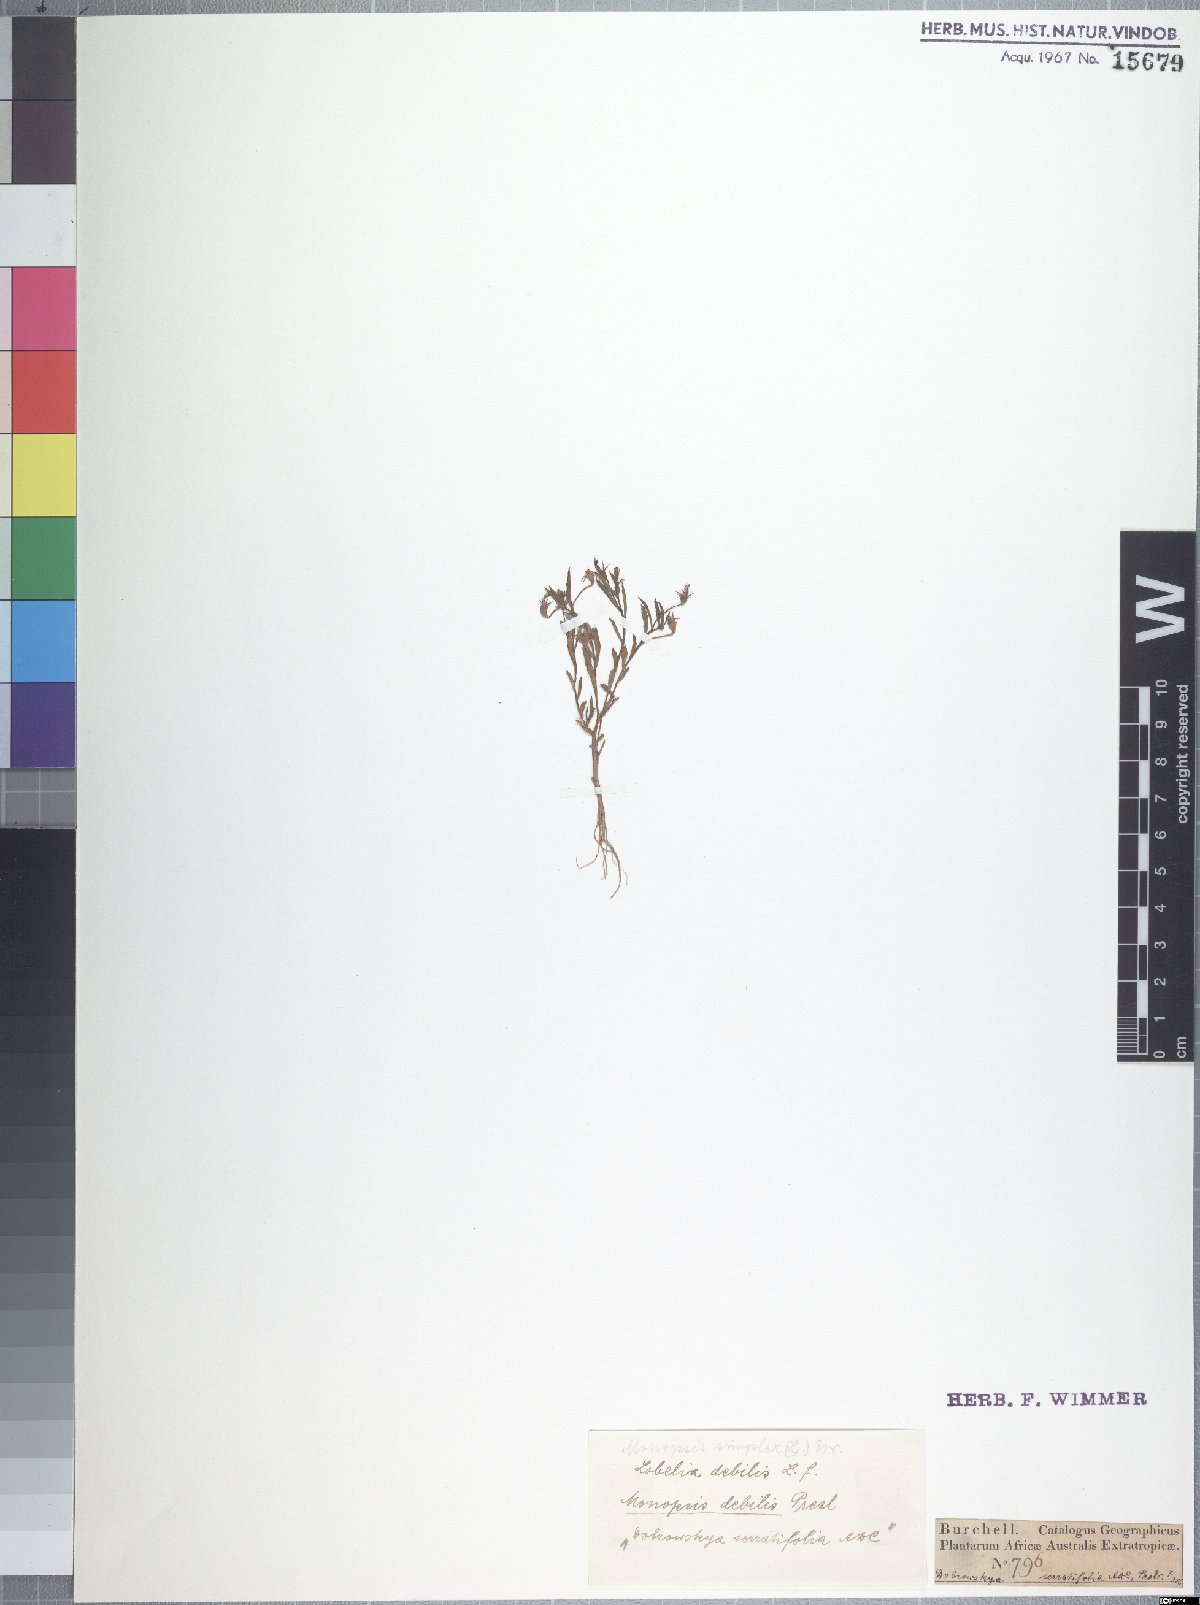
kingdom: Plantae
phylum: Tracheophyta
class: Magnoliopsida
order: Asterales
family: Campanulaceae
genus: Monopsis
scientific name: Monopsis debilis
